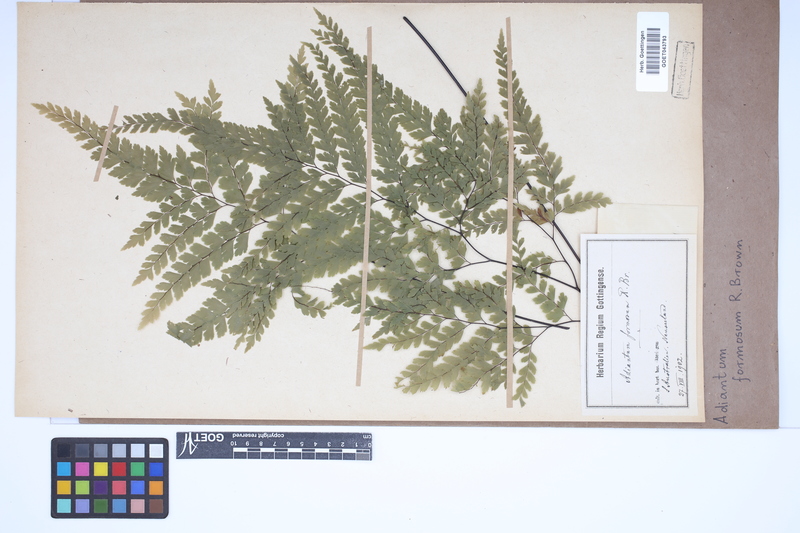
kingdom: Plantae
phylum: Tracheophyta
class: Polypodiopsida
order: Polypodiales
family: Pteridaceae
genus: Adiantum
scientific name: Adiantum formosum
